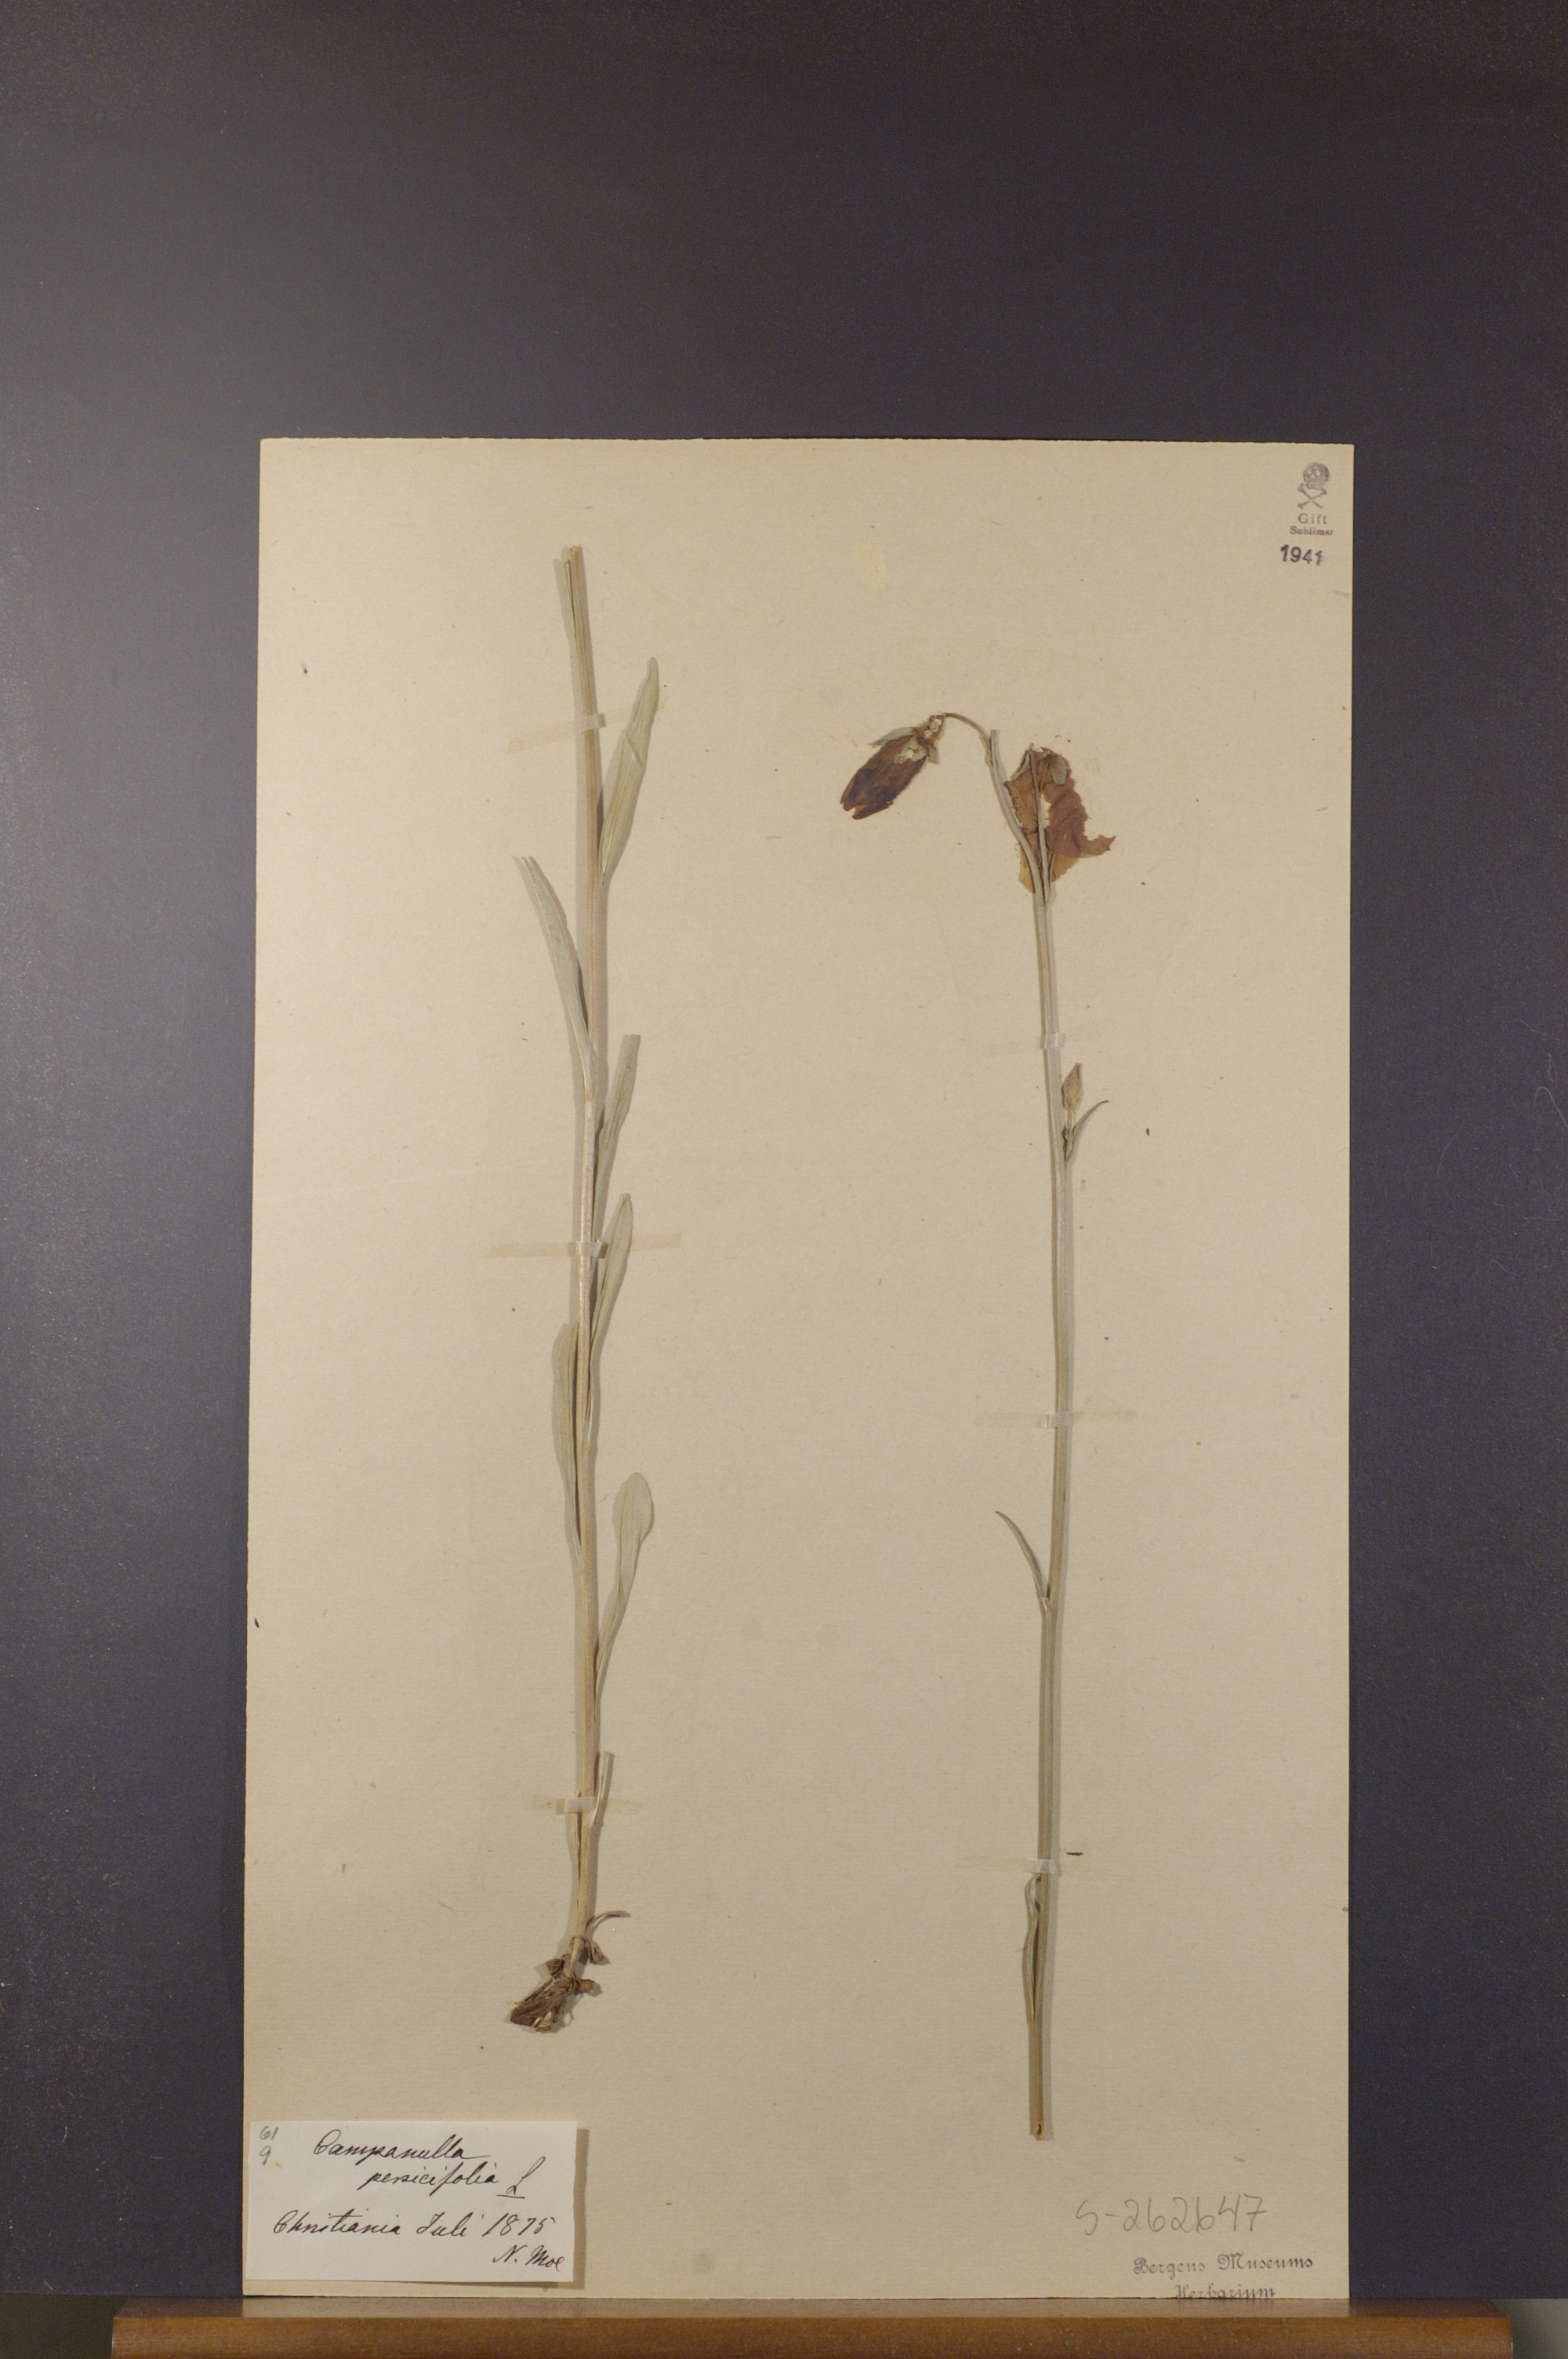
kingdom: Plantae
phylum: Tracheophyta
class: Magnoliopsida
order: Asterales
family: Campanulaceae
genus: Campanula
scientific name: Campanula persicifolia
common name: Peach-leaved bellflower
